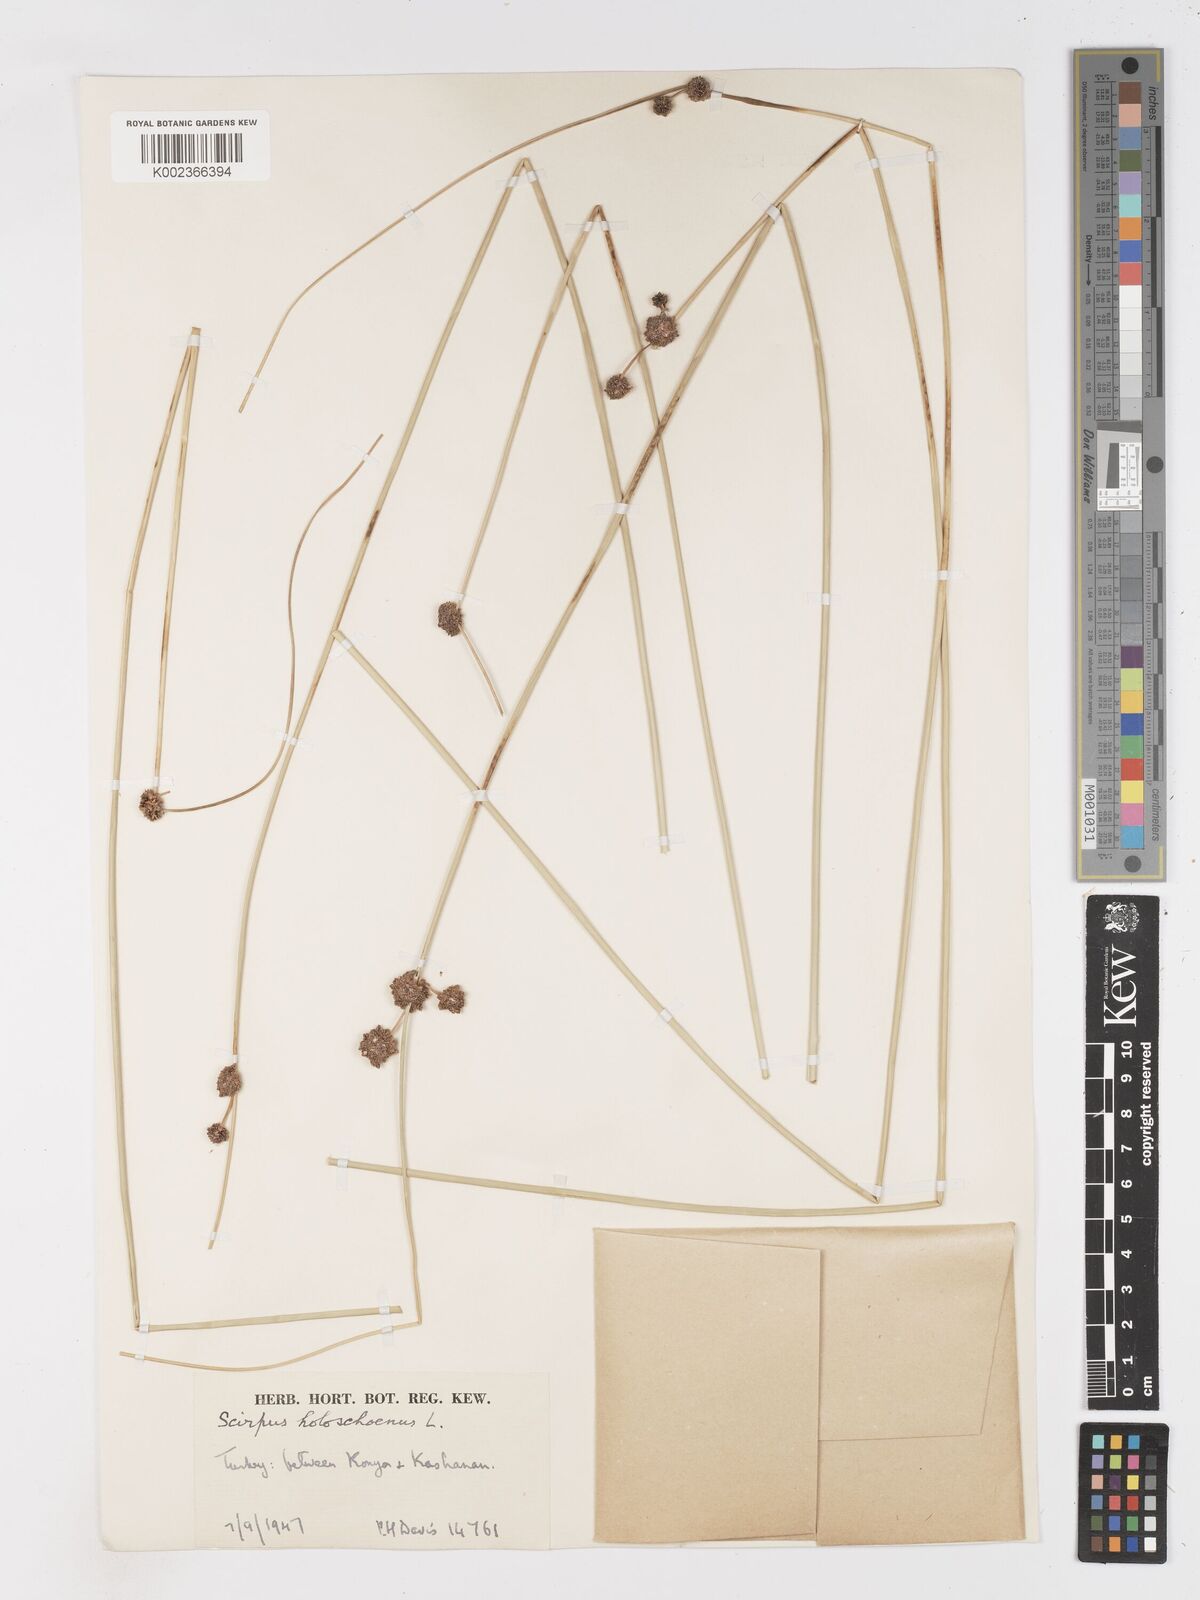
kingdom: Plantae
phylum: Tracheophyta
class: Liliopsida
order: Poales
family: Cyperaceae
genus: Scirpoides
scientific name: Scirpoides holoschoenus
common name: Round-headed club-rush
